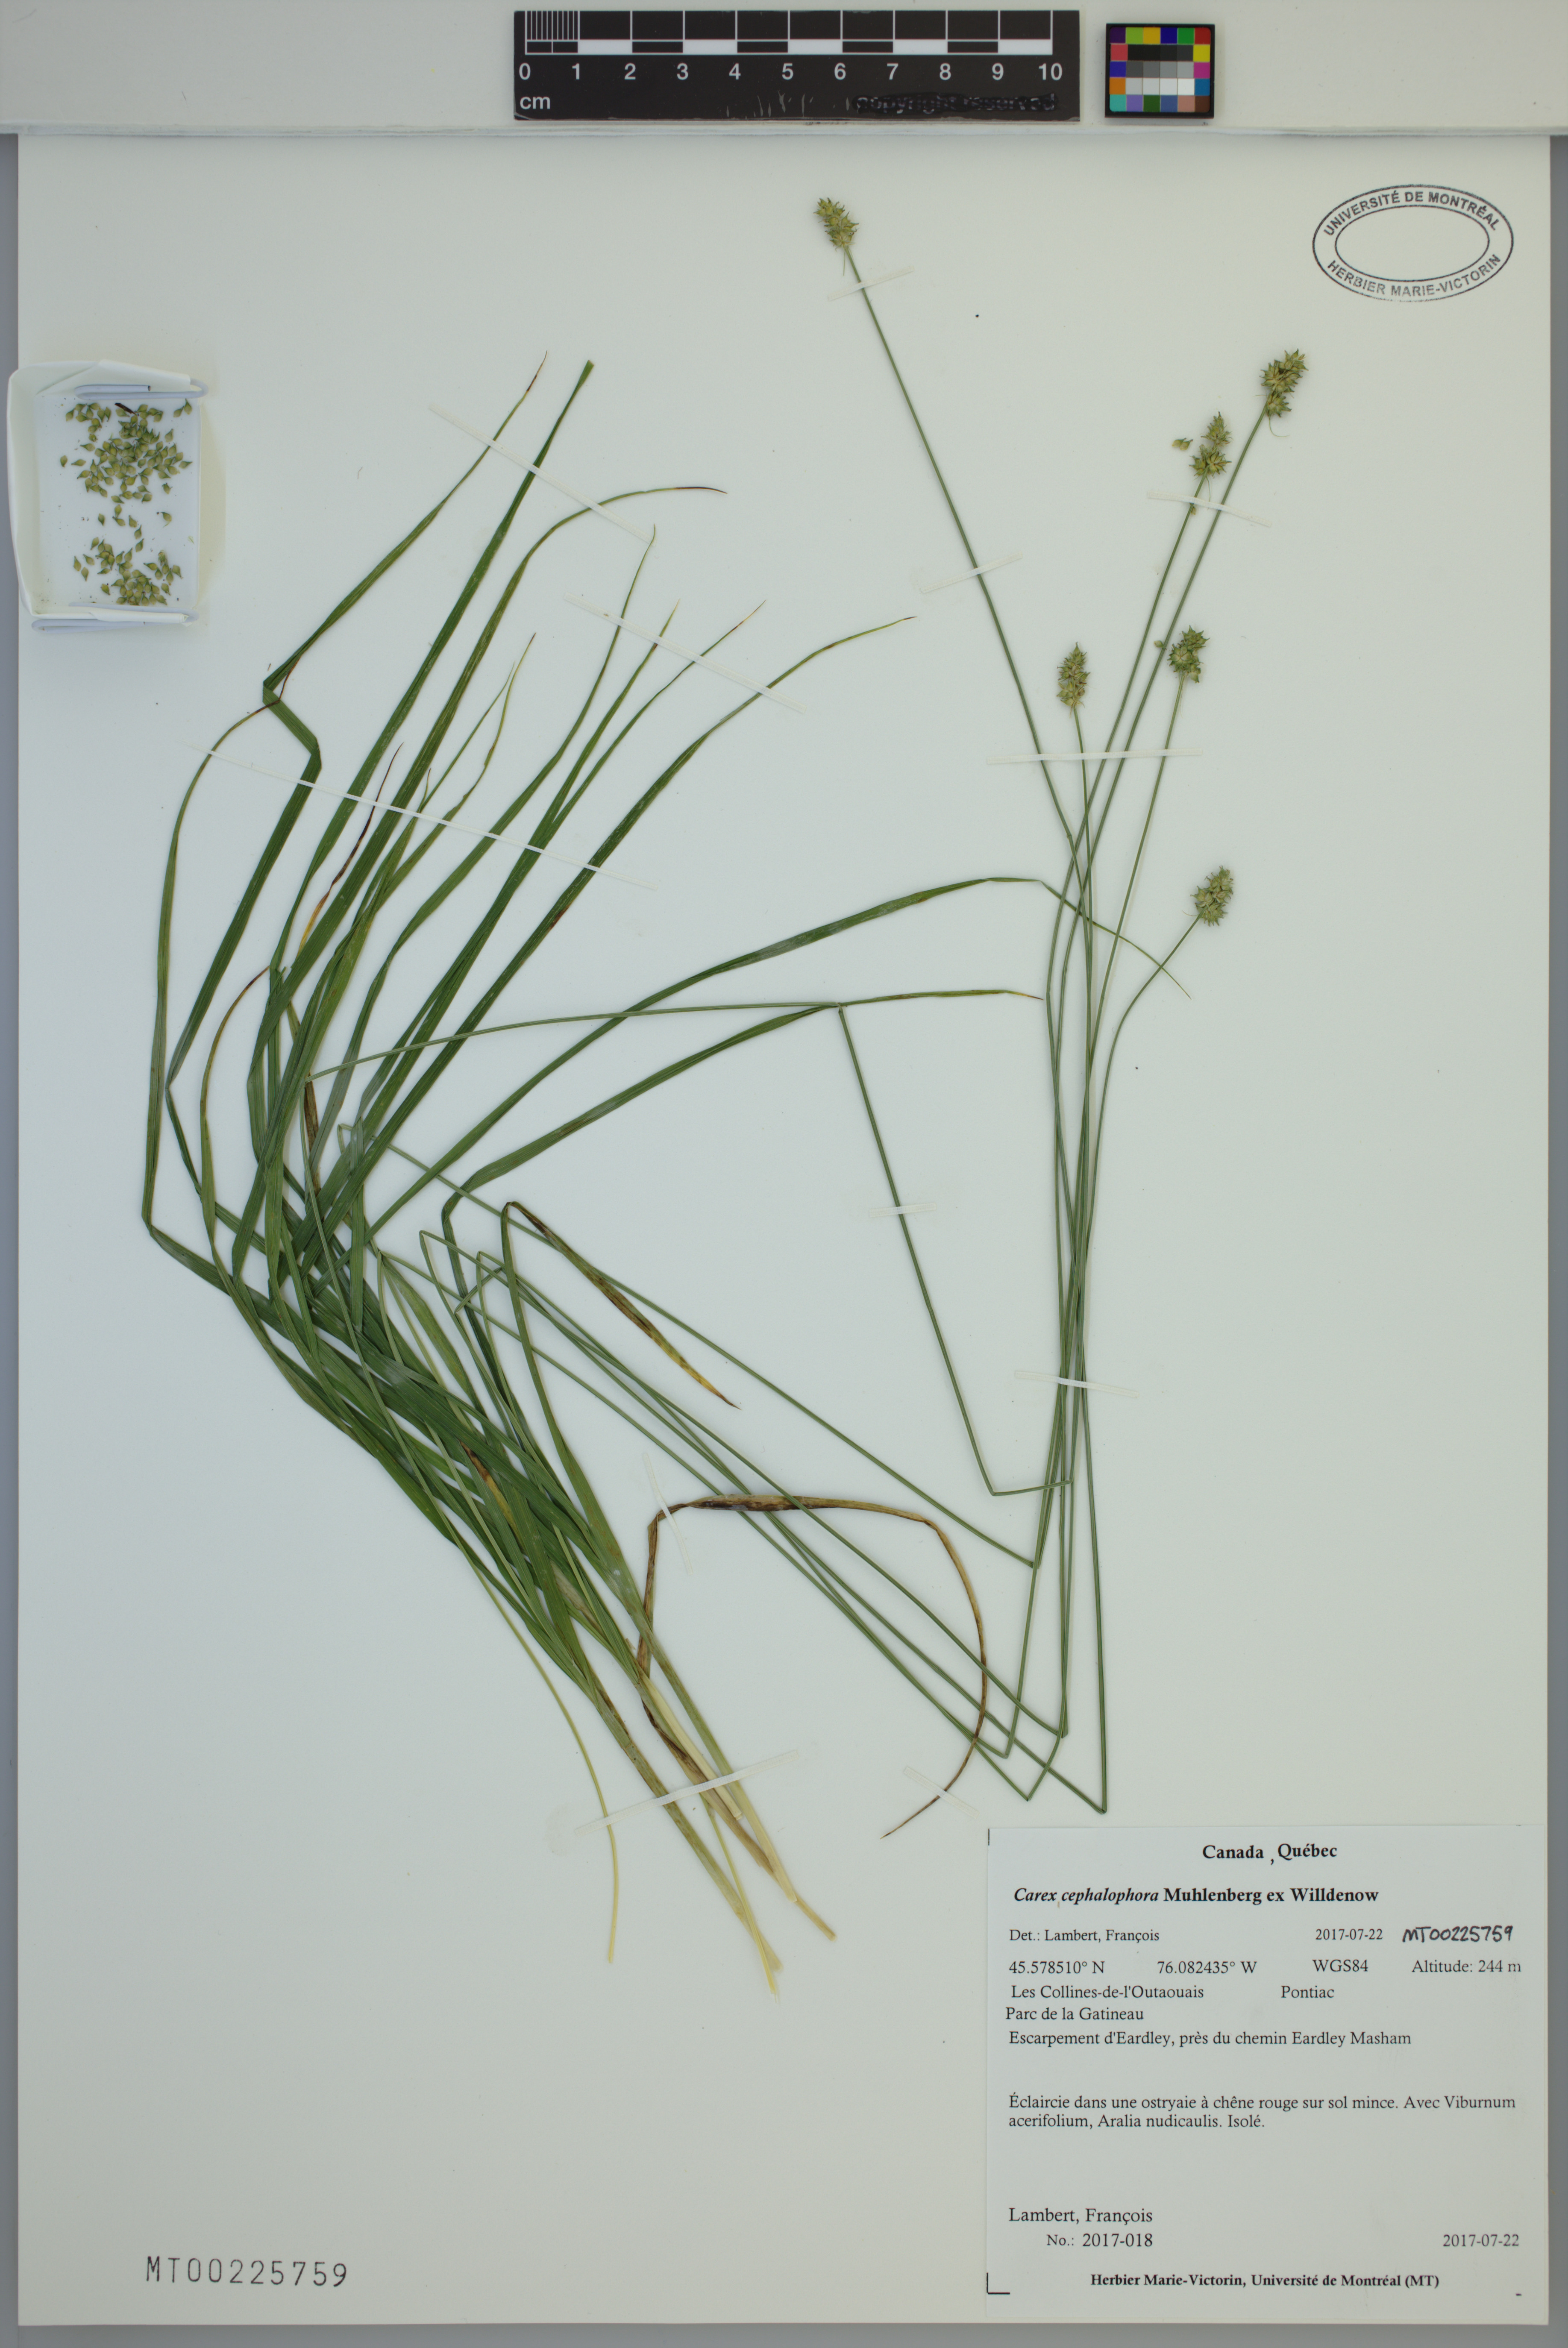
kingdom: Plantae
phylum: Tracheophyta
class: Liliopsida
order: Poales
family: Cyperaceae
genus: Carex
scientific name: Carex cephalophora
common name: Oval-headed sedge
